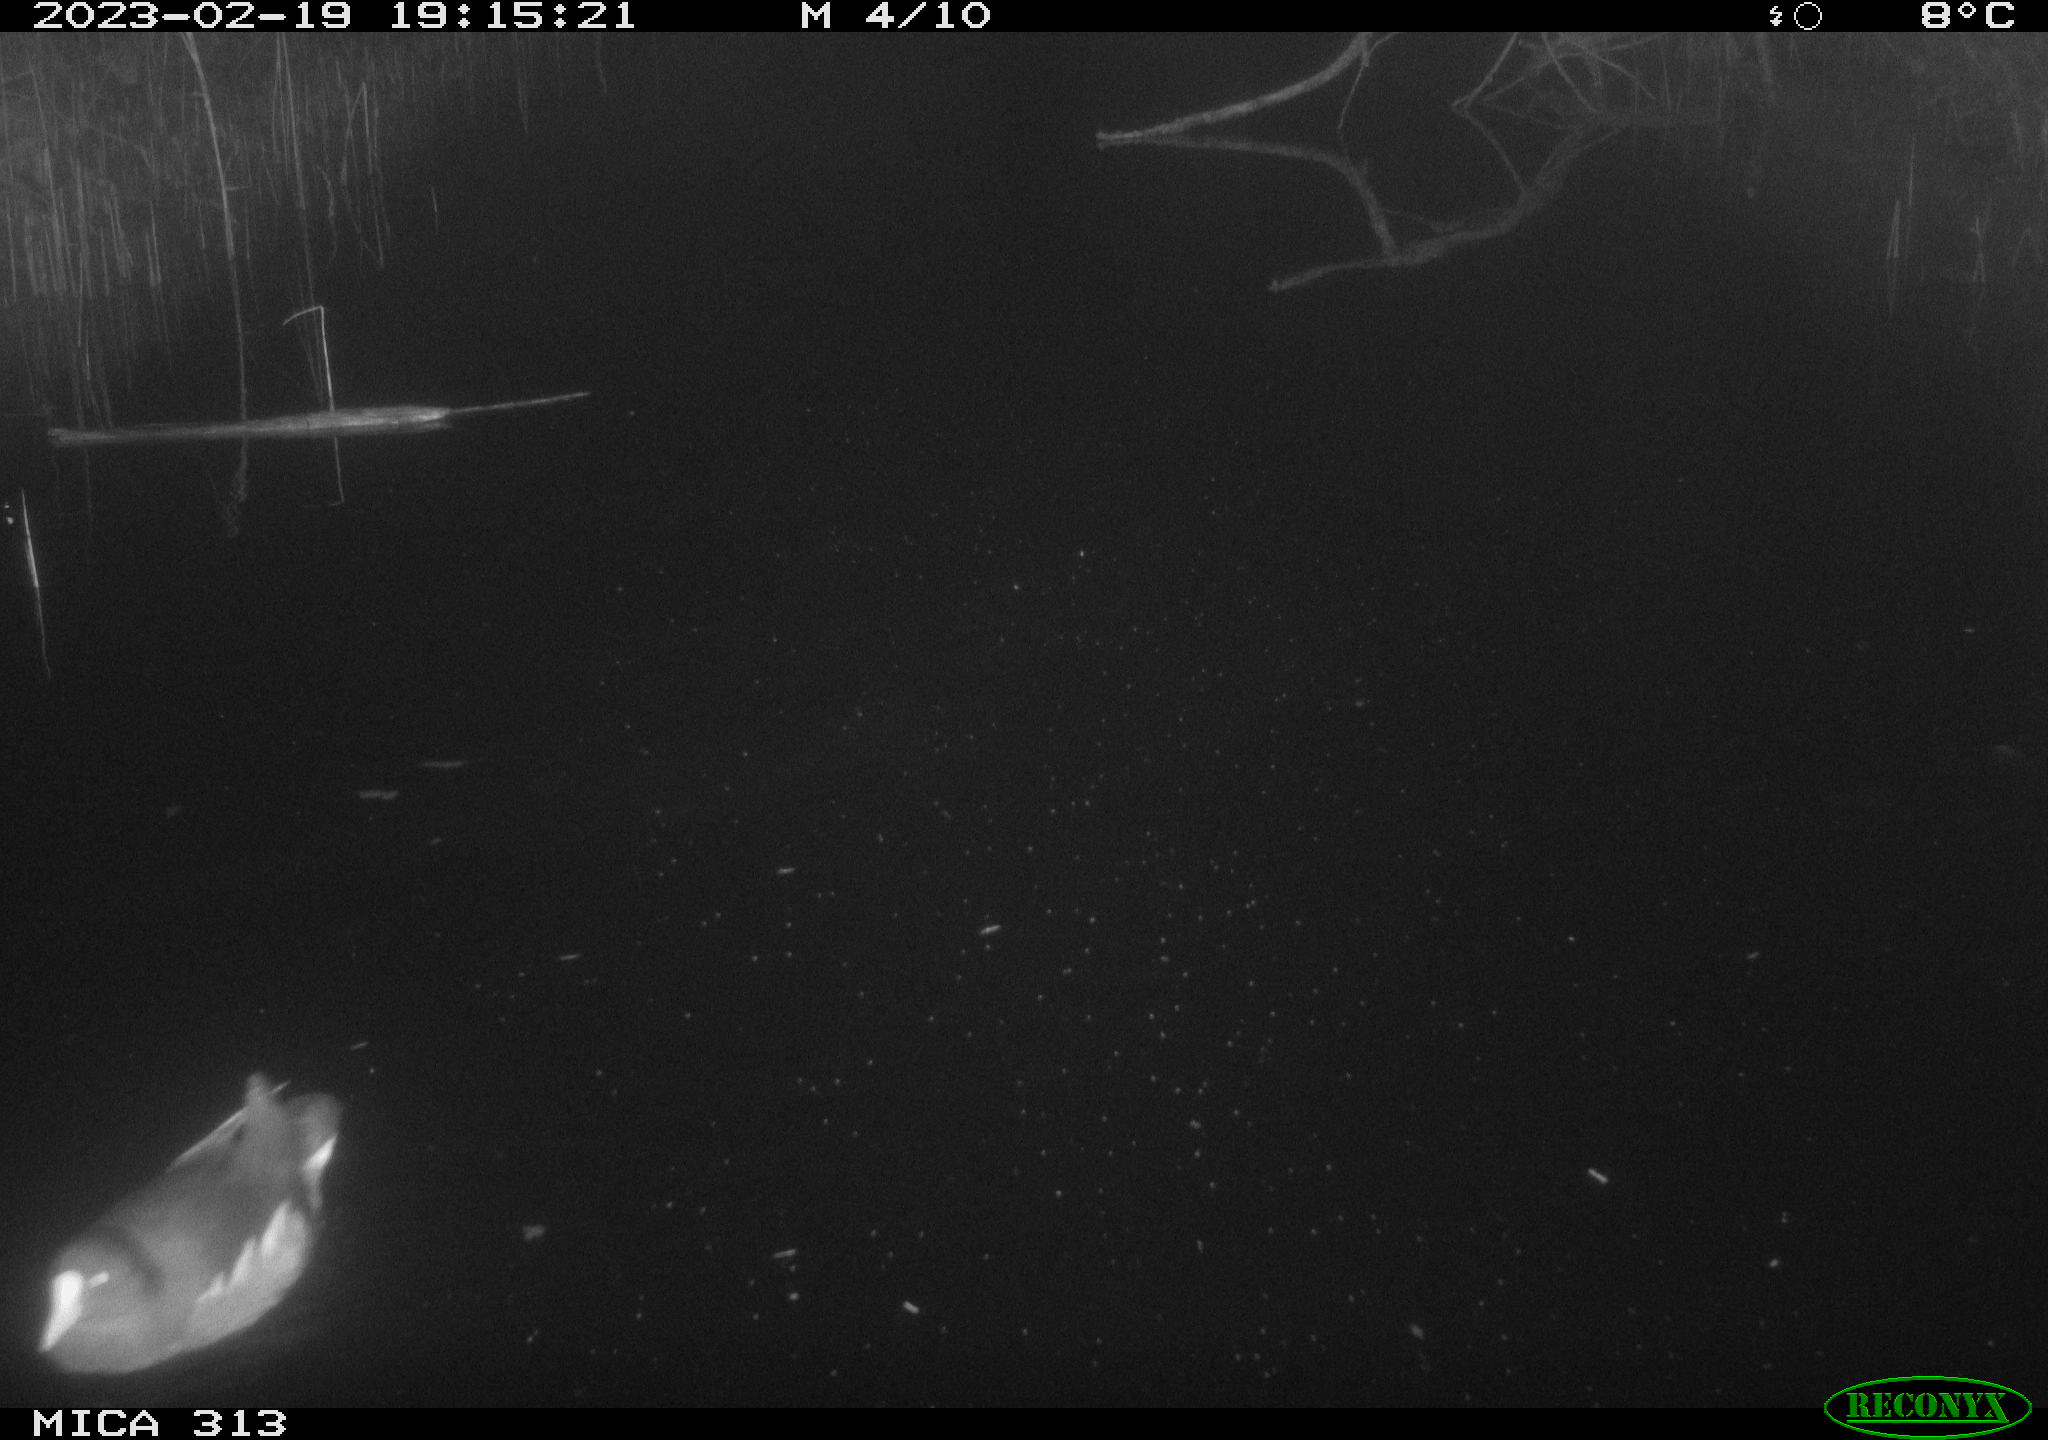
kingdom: Animalia
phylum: Chordata
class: Aves
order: Gruiformes
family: Rallidae
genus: Gallinula
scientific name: Gallinula chloropus
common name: Common moorhen
